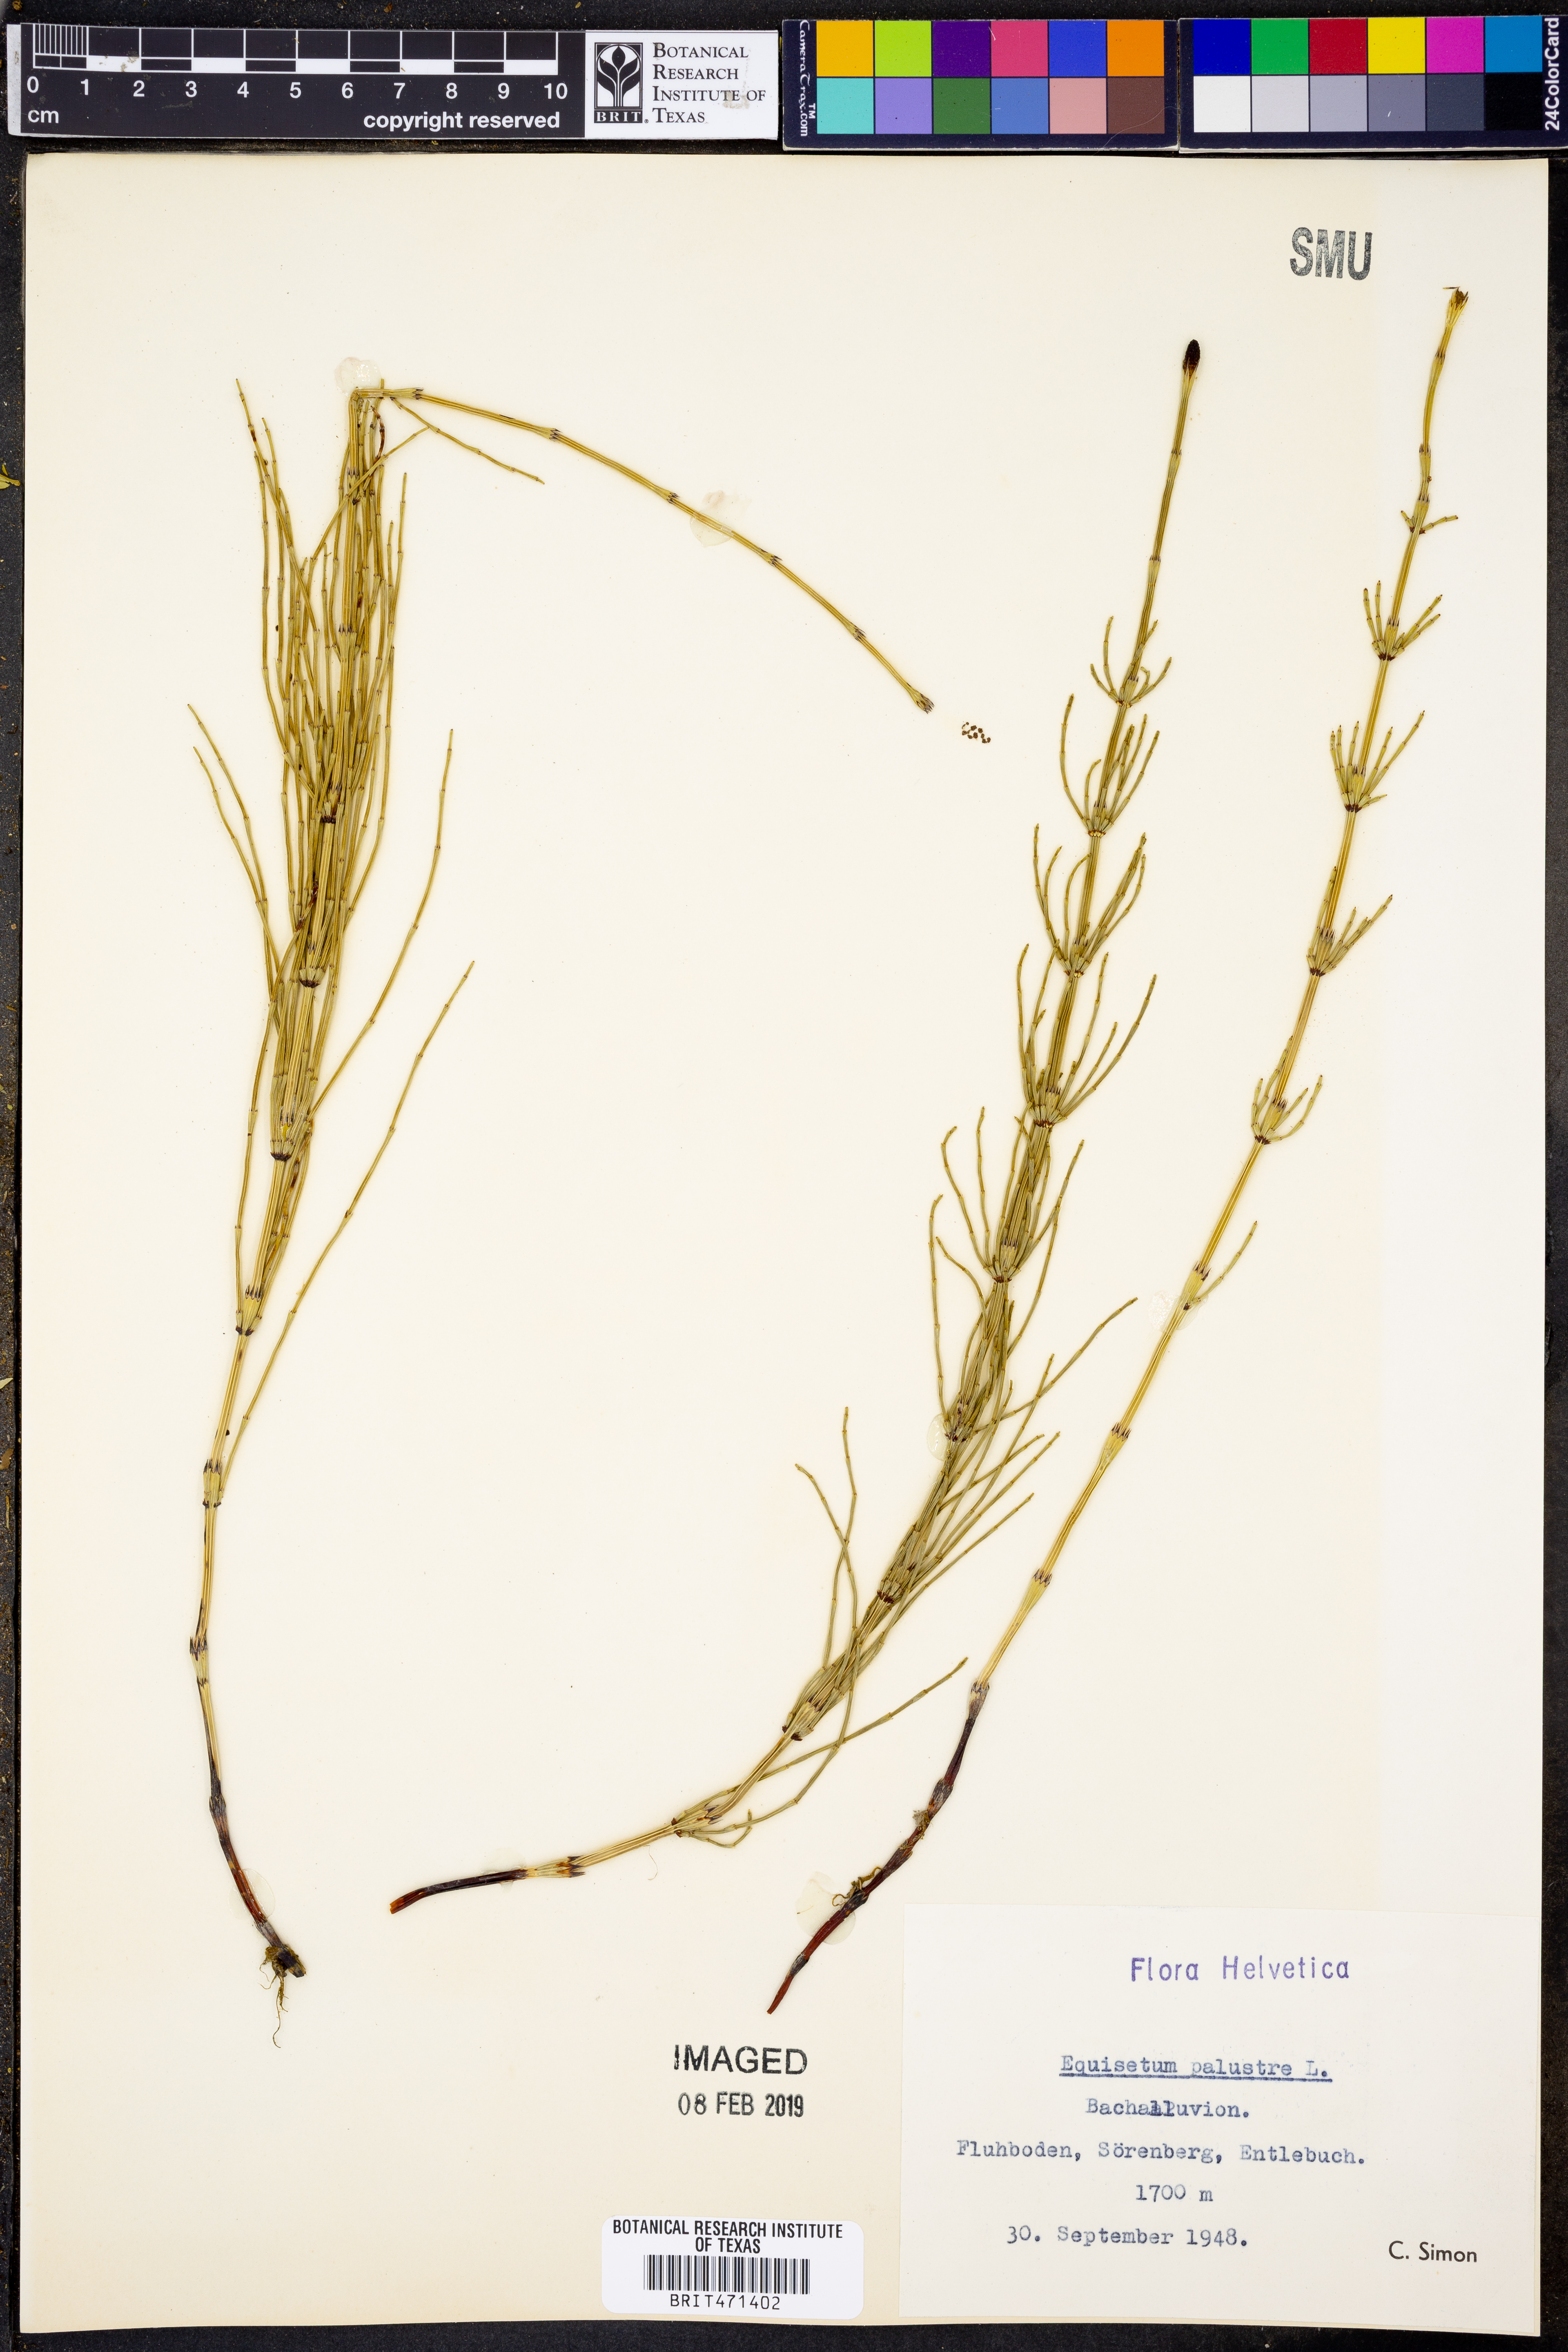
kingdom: Plantae
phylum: Tracheophyta
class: Polypodiopsida
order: Equisetales
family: Equisetaceae
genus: Equisetum
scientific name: Equisetum palustre
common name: Marsh horsetail
